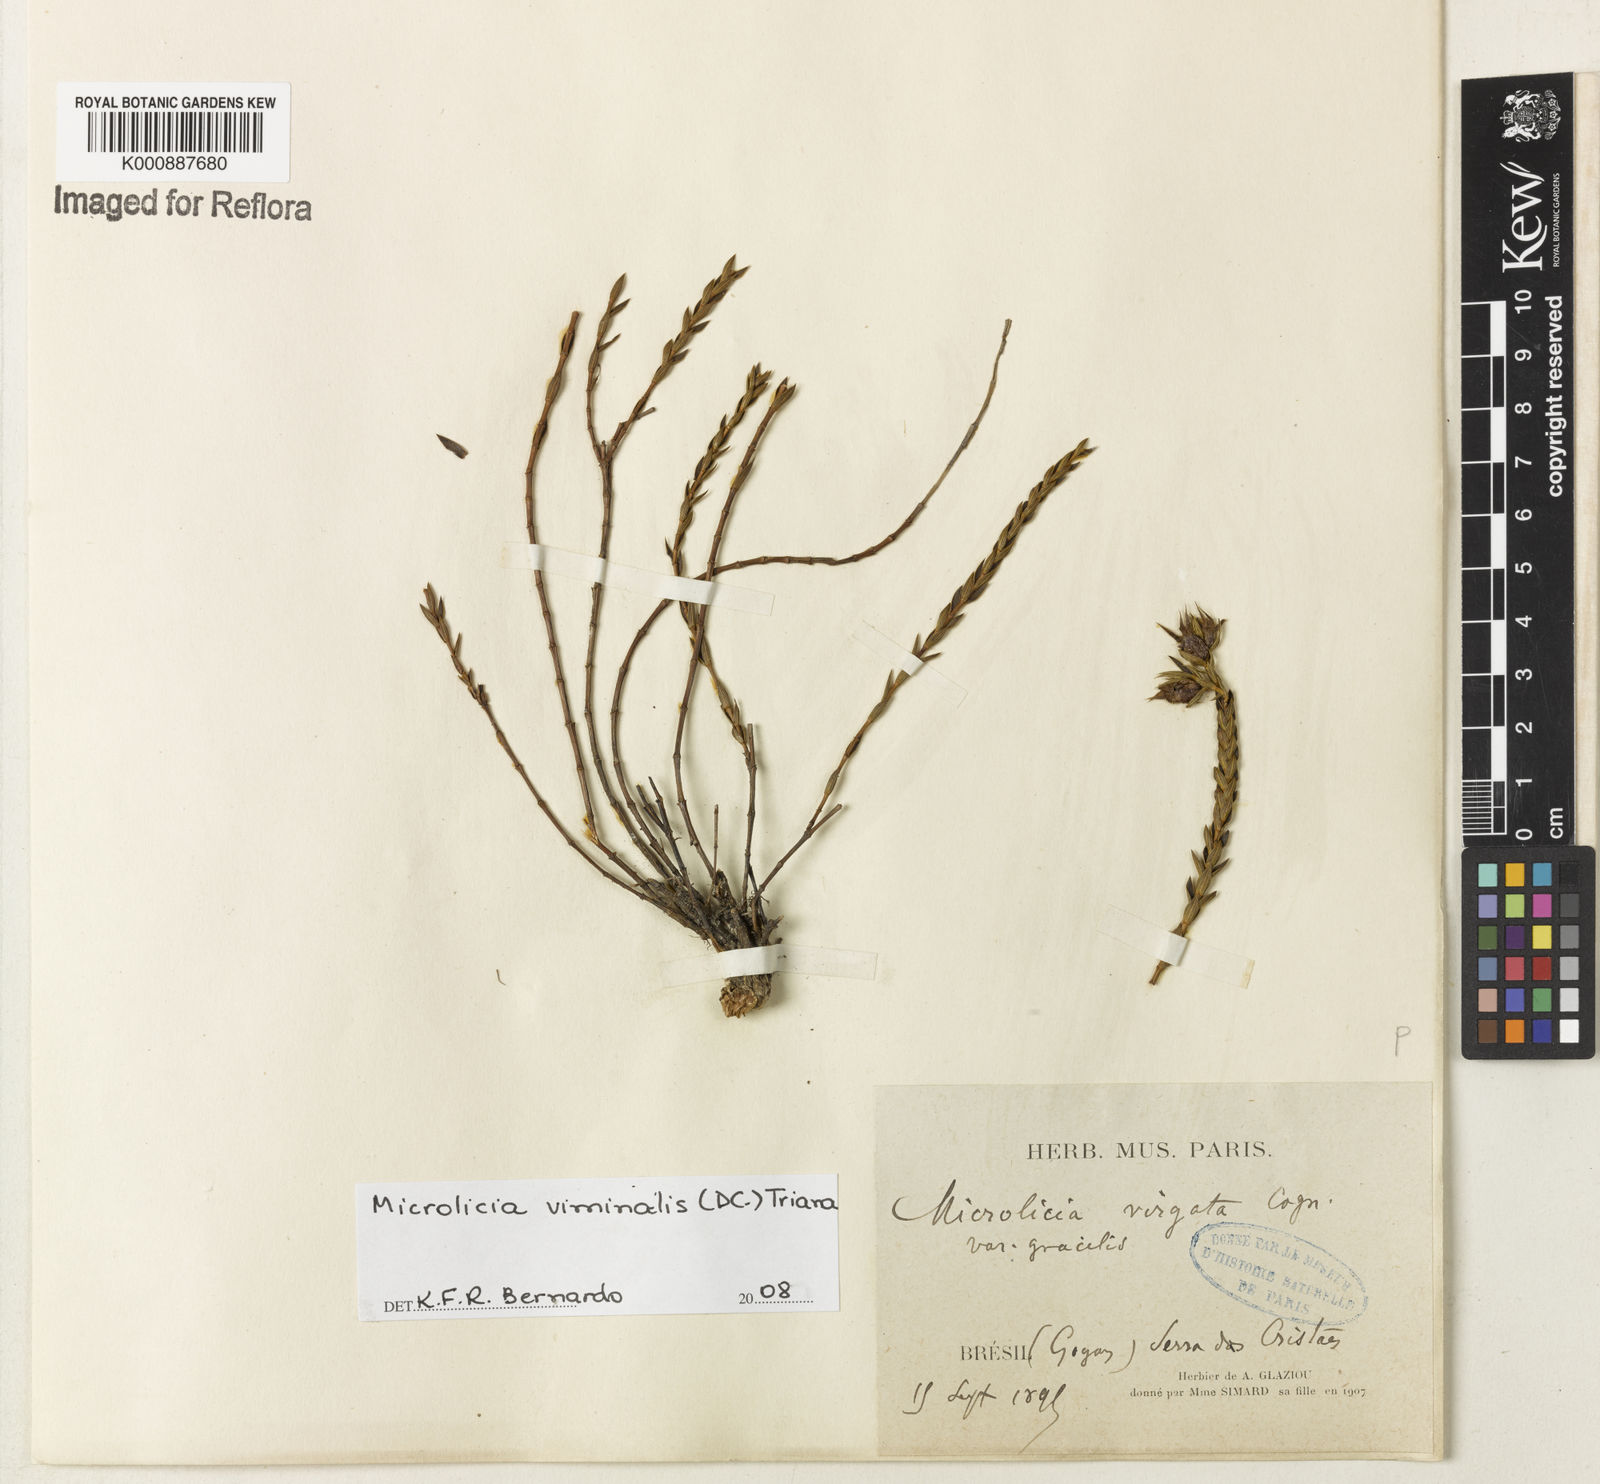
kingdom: Plantae
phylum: Tracheophyta
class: Magnoliopsida
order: Myrtales
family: Melastomataceae
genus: Microlicia
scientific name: Microlicia viminalis
